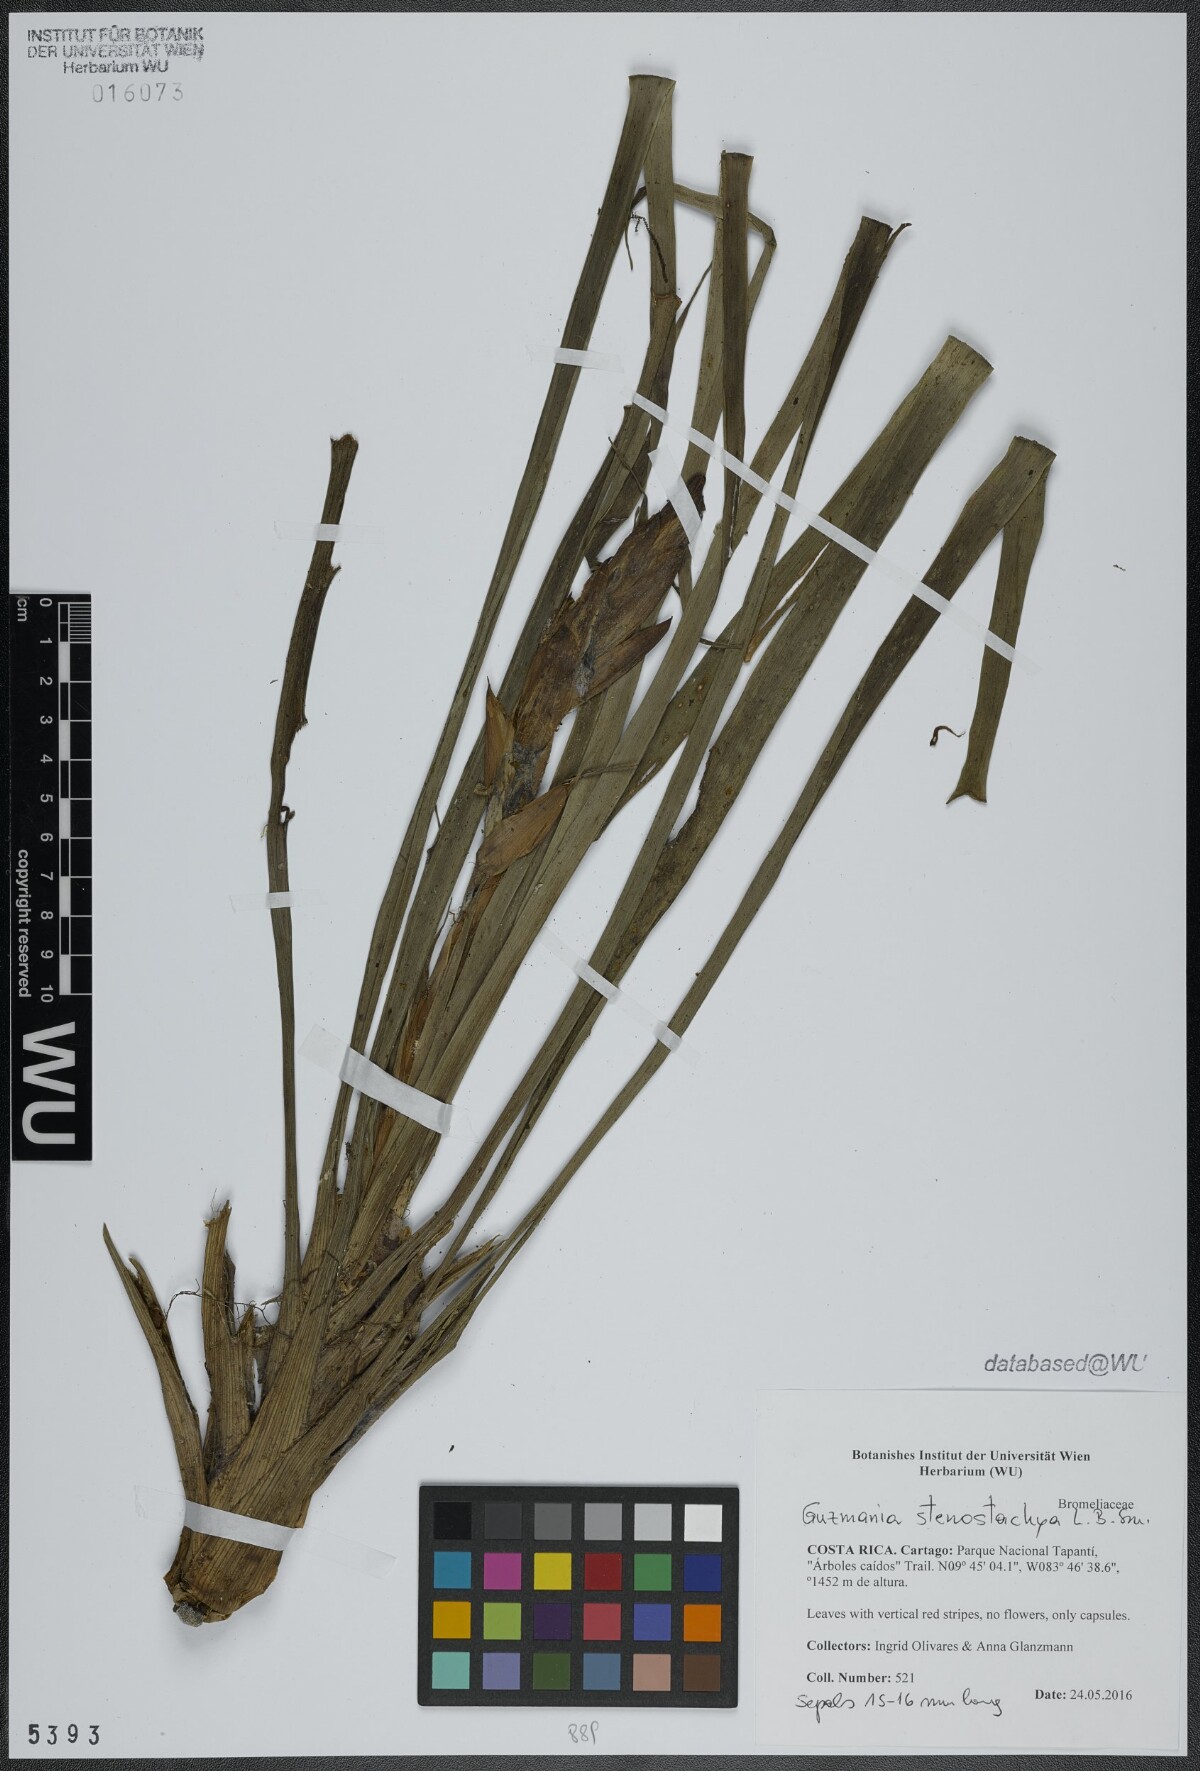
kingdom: Plantae
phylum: Tracheophyta
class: Liliopsida
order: Poales
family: Bromeliaceae
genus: Guzmania
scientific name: Guzmania stenostachya
